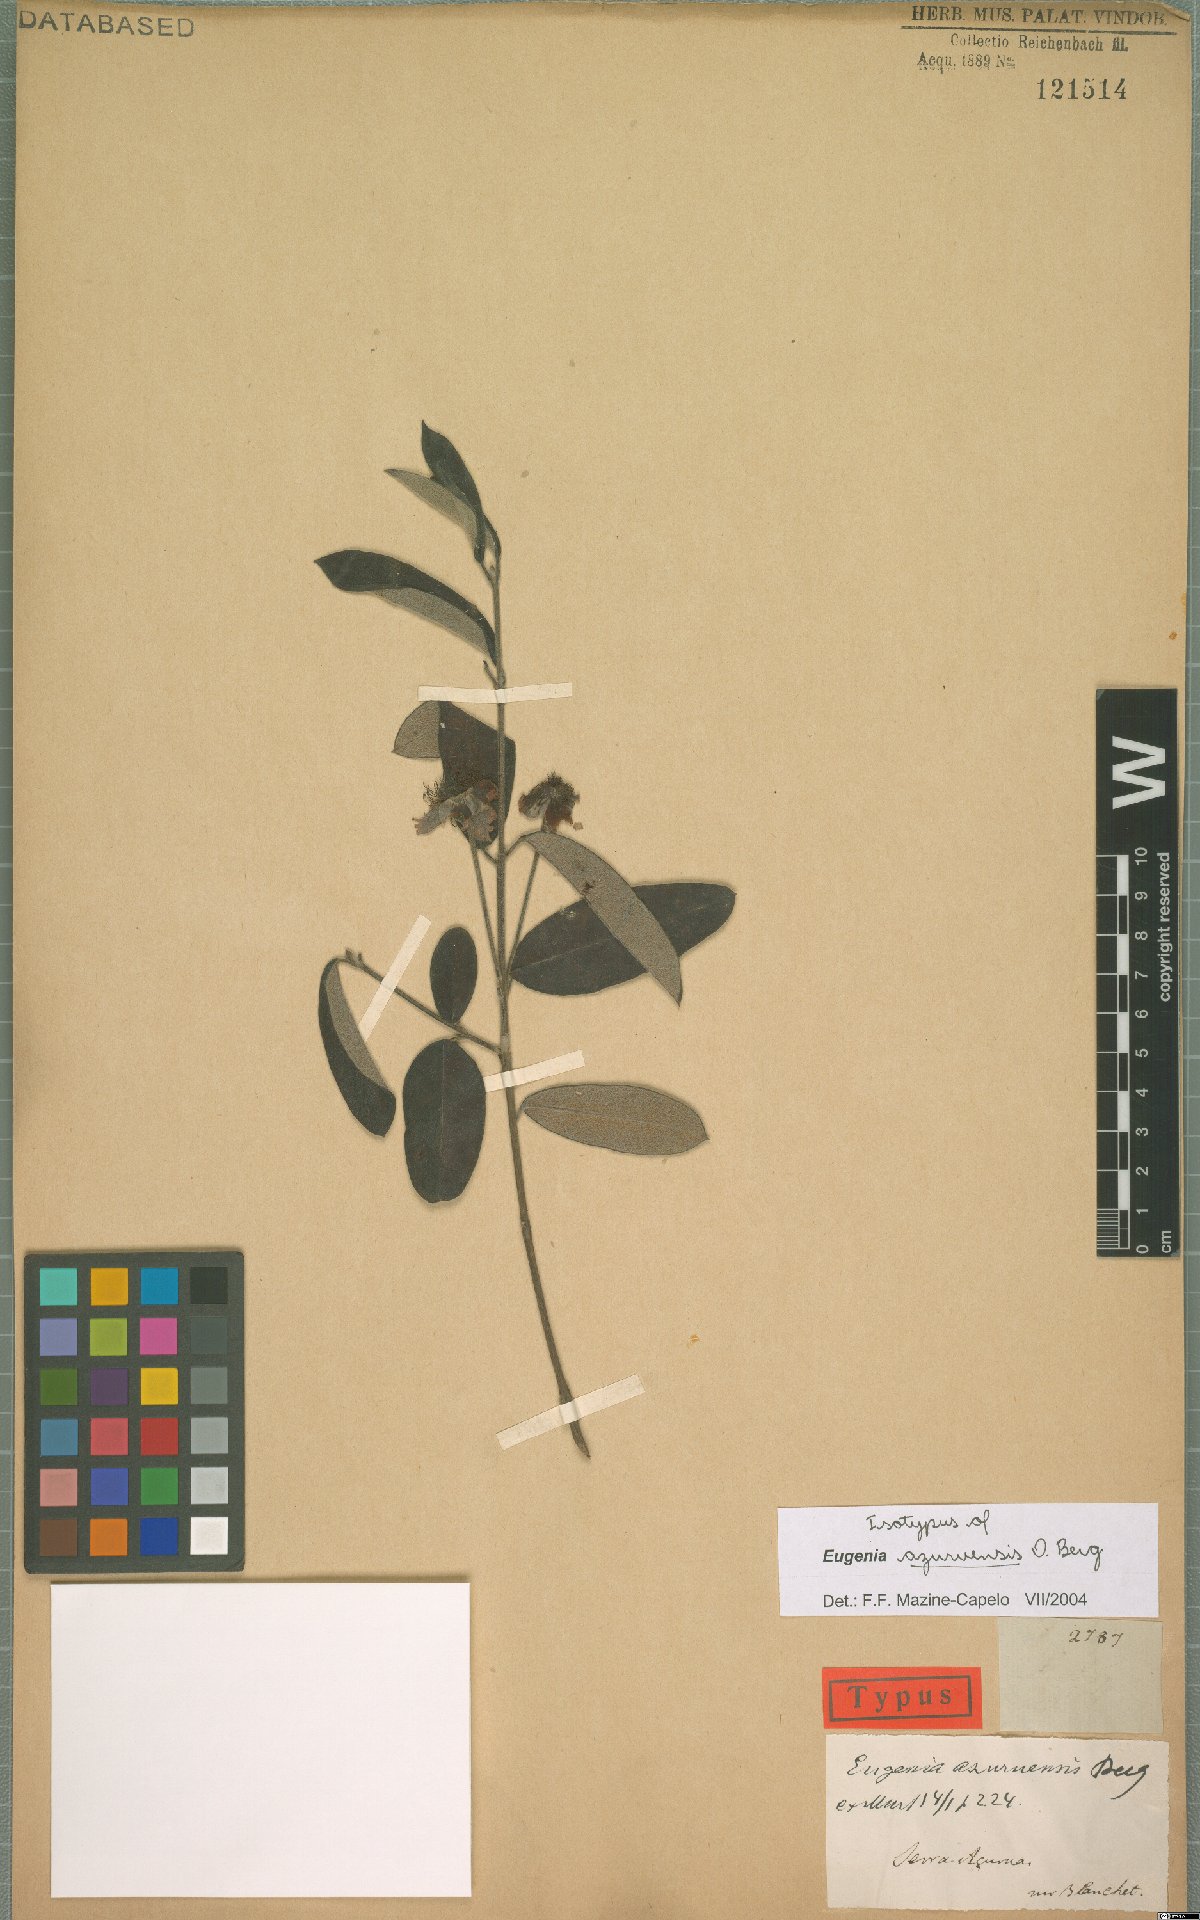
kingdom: Plantae
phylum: Tracheophyta
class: Magnoliopsida
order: Myrtales
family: Myrtaceae
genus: Eugenia
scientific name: Eugenia azuruensis
